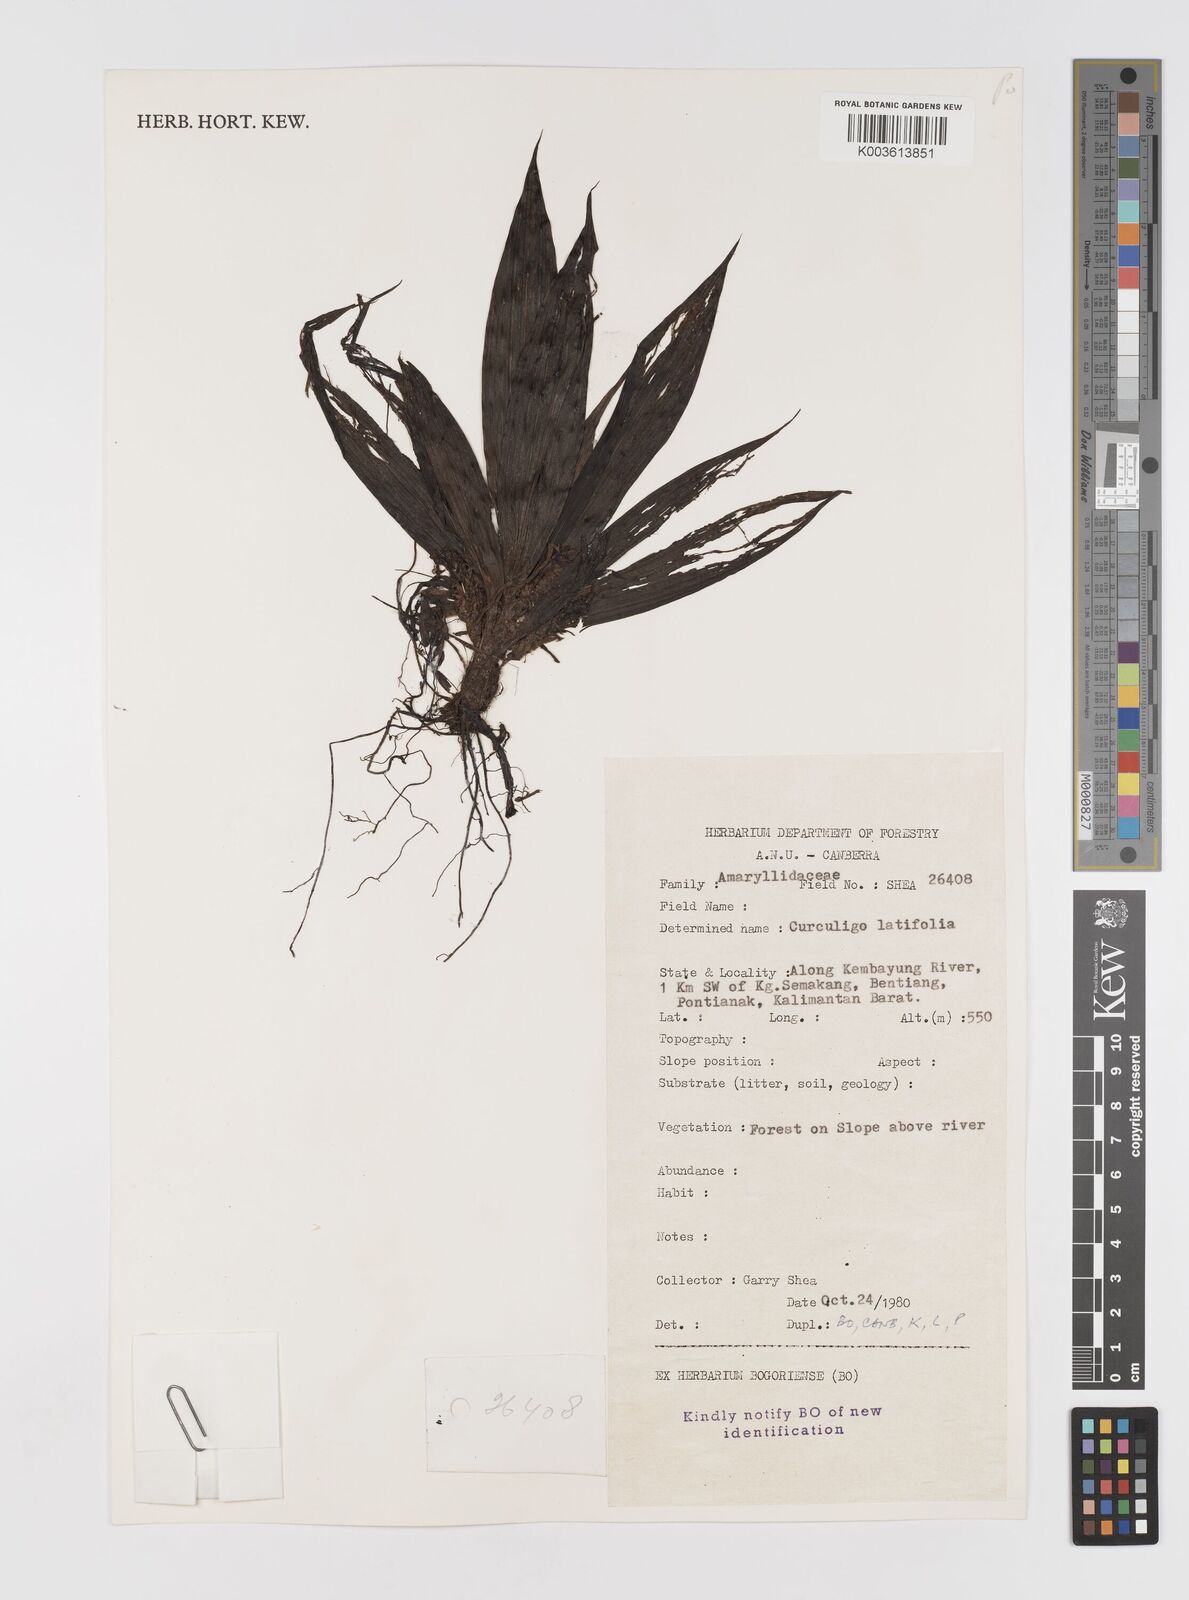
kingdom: Plantae
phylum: Tracheophyta
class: Liliopsida
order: Asparagales
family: Hypoxidaceae
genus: Curculigo
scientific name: Curculigo latifolia
